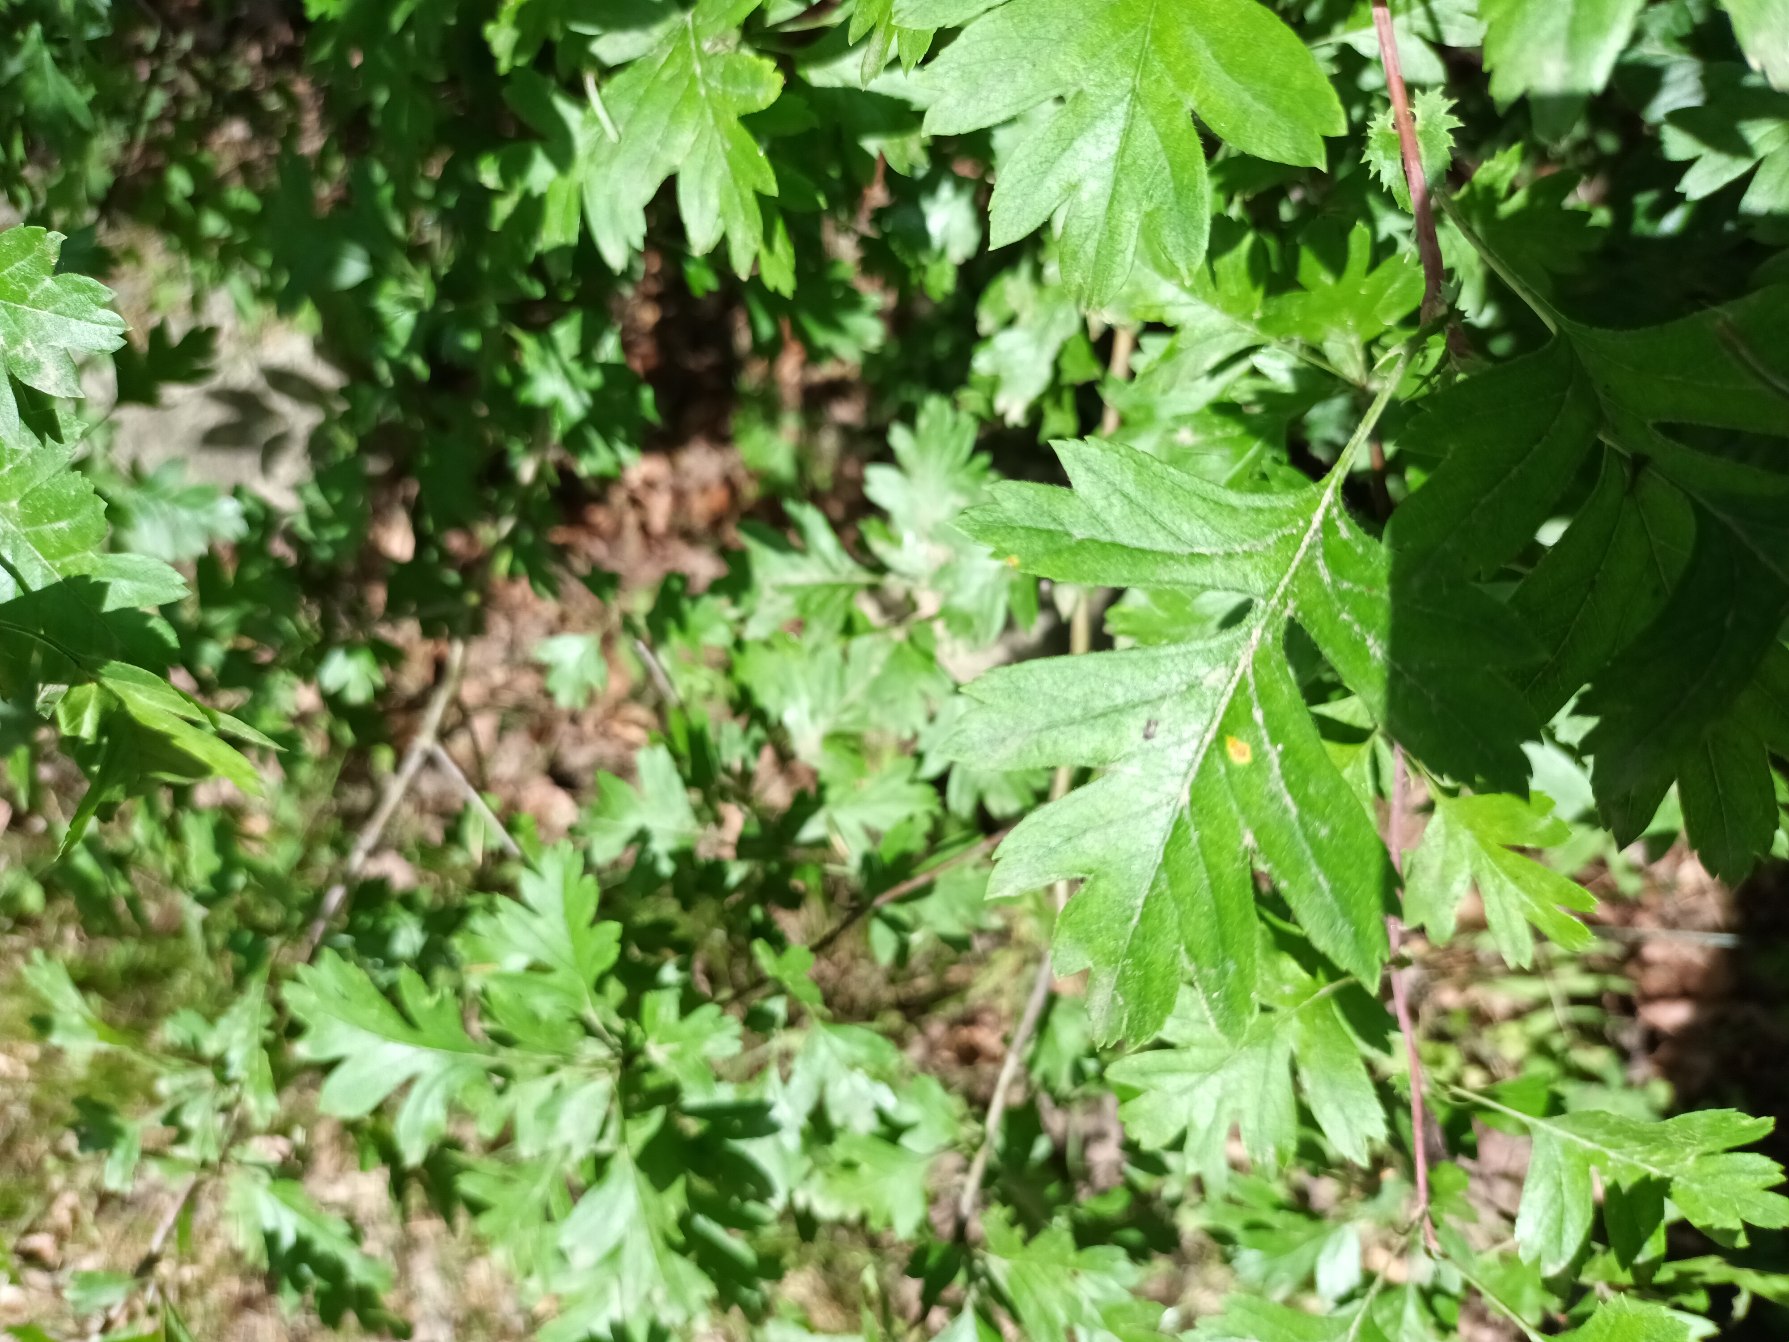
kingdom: Plantae
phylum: Tracheophyta
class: Magnoliopsida
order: Rosales
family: Rosaceae
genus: Crataegus
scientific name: Crataegus subsphaerica
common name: Engriflet hvidtjørn × koral-hvidtjørn
